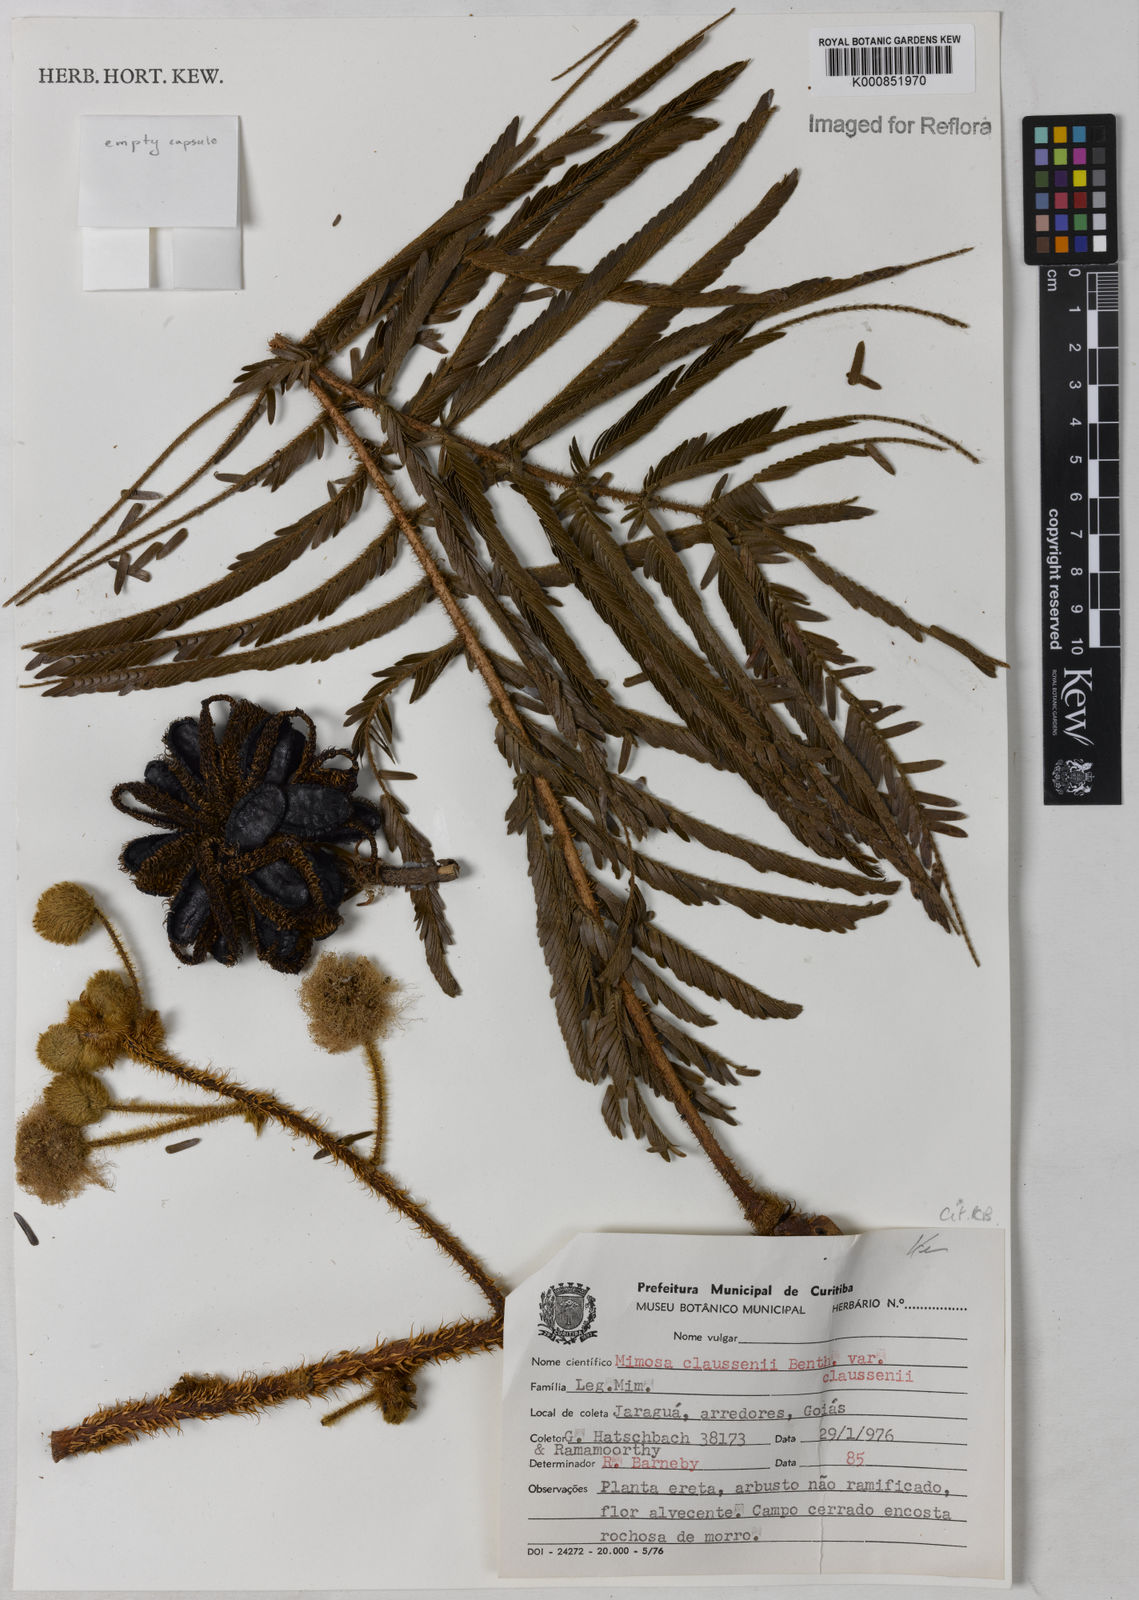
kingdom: Plantae
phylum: Tracheophyta
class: Magnoliopsida
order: Fabales
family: Fabaceae
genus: Mimosa
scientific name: Mimosa claussenii
